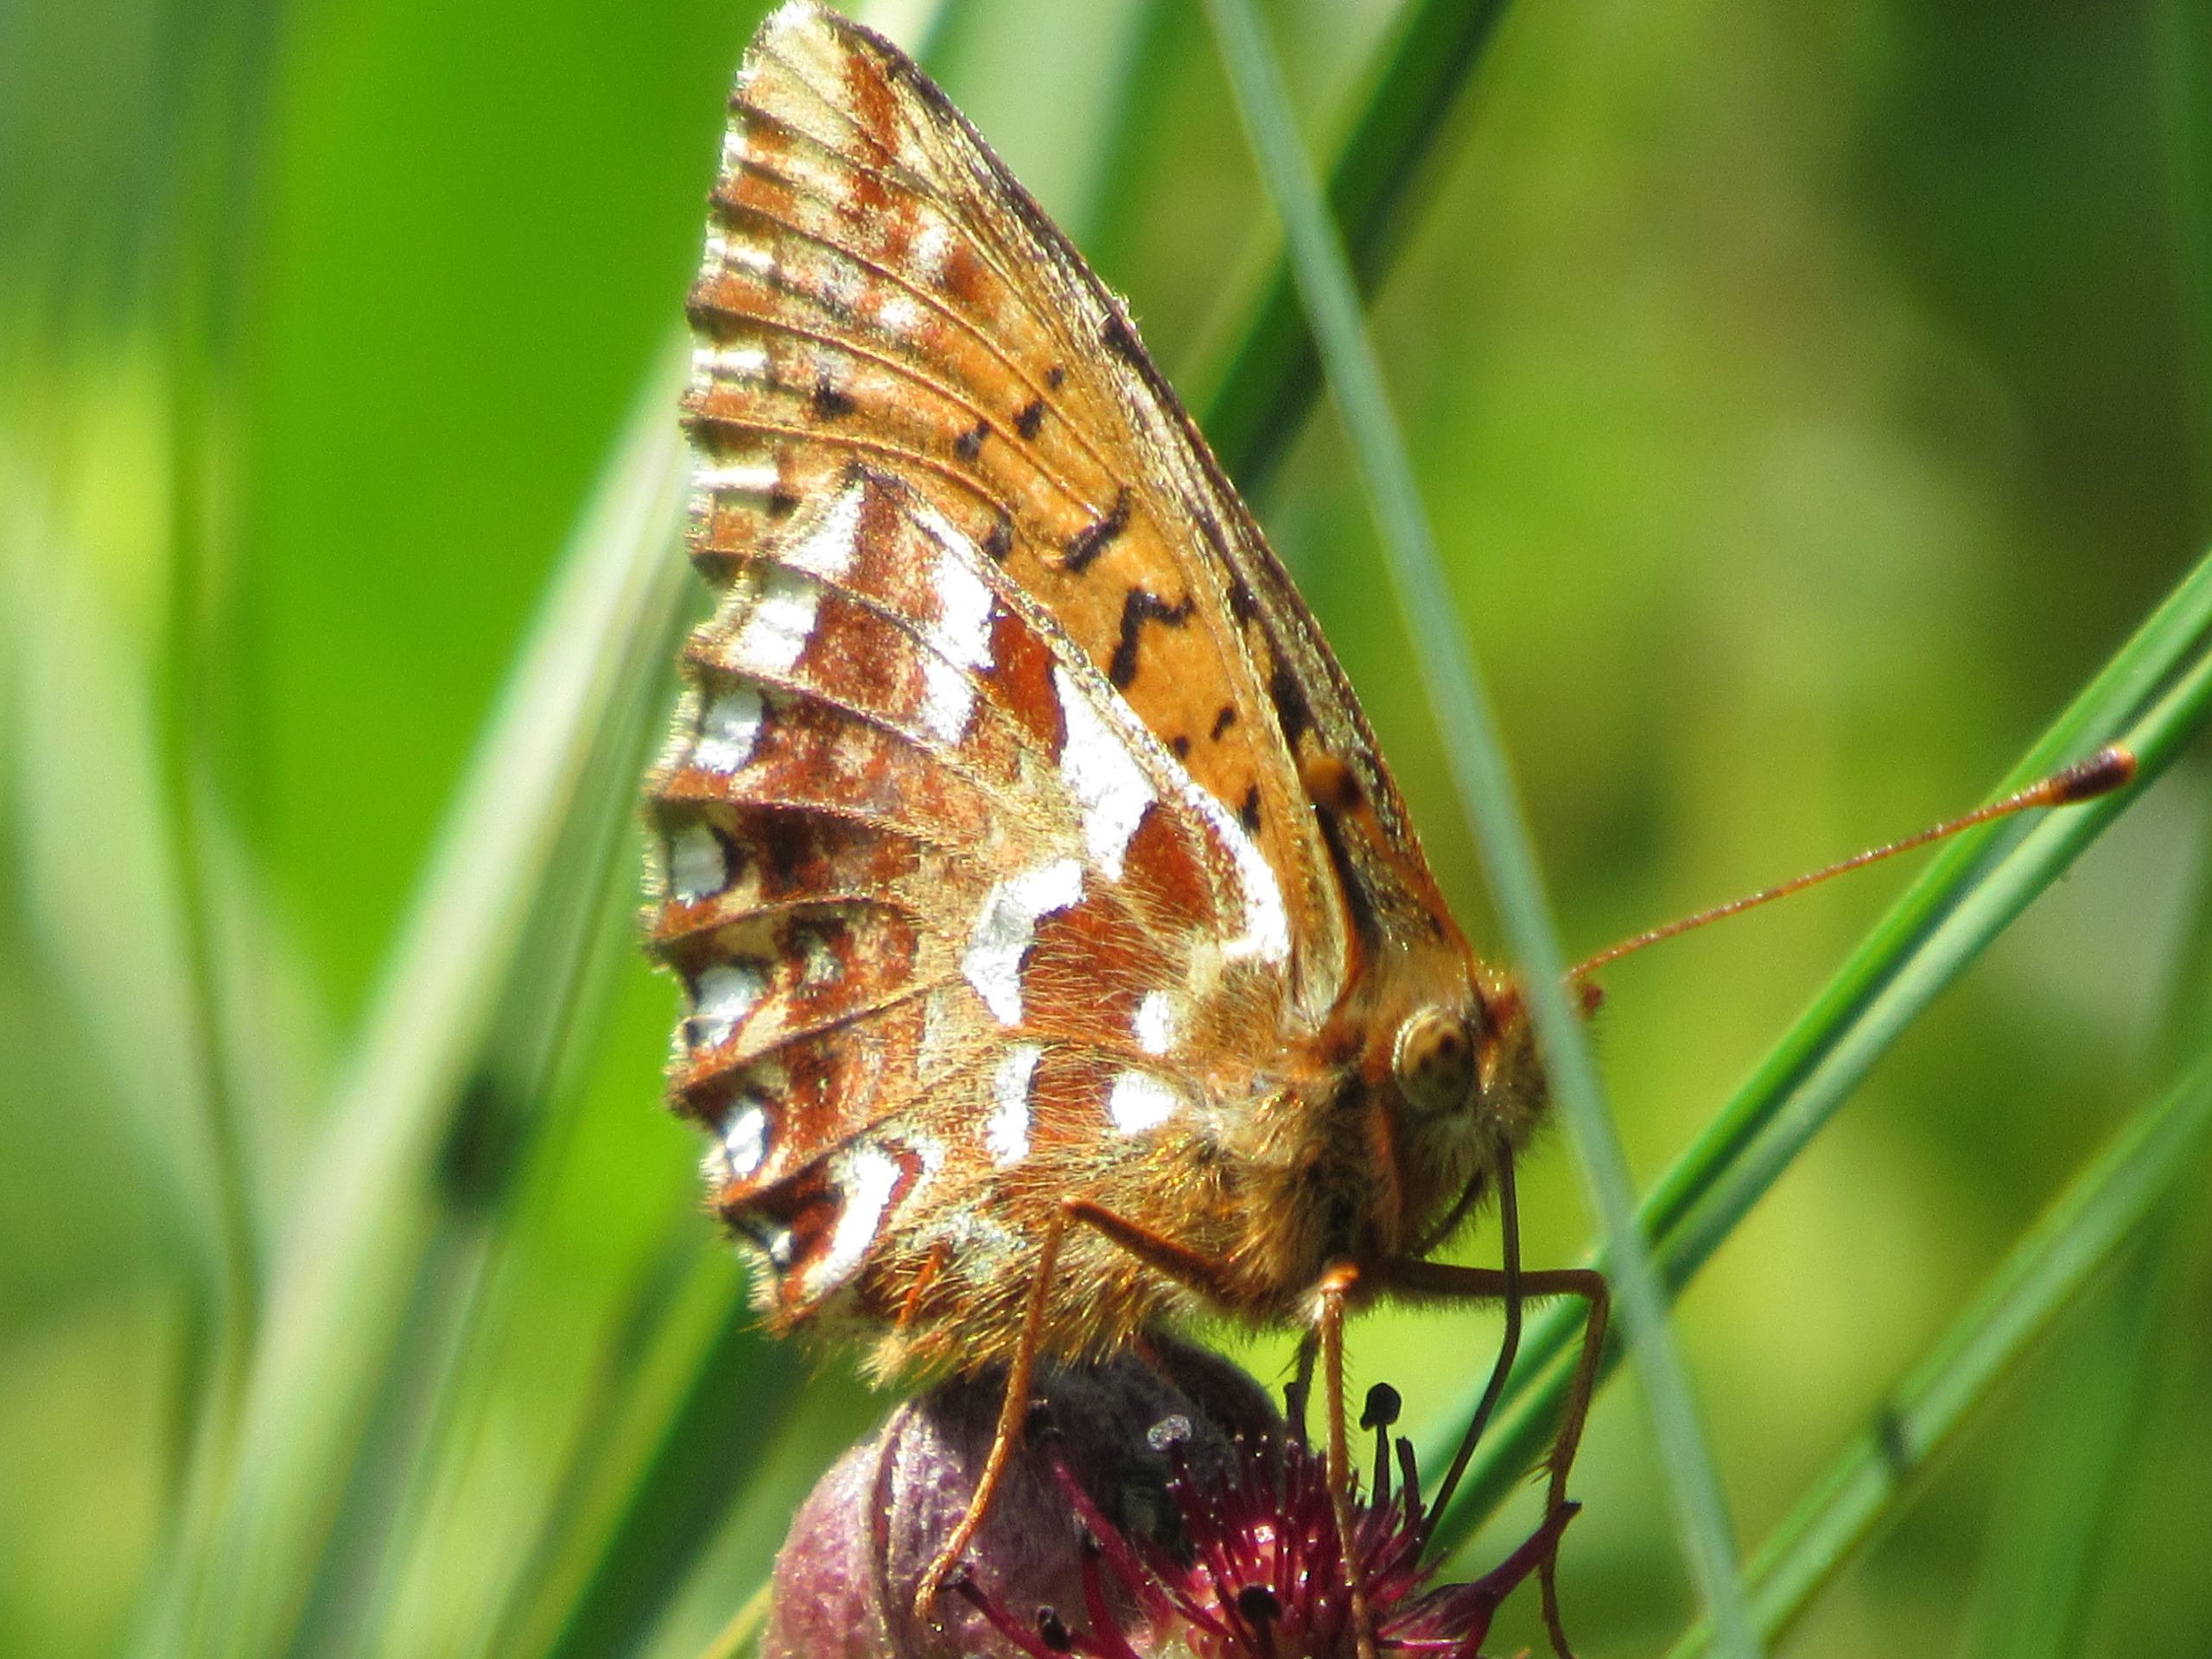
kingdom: Animalia
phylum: Arthropoda
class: Insecta
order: Lepidoptera
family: Nymphalidae
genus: Boloria
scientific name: Boloria aquilonaris
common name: Moseperlemorsommerfugl
